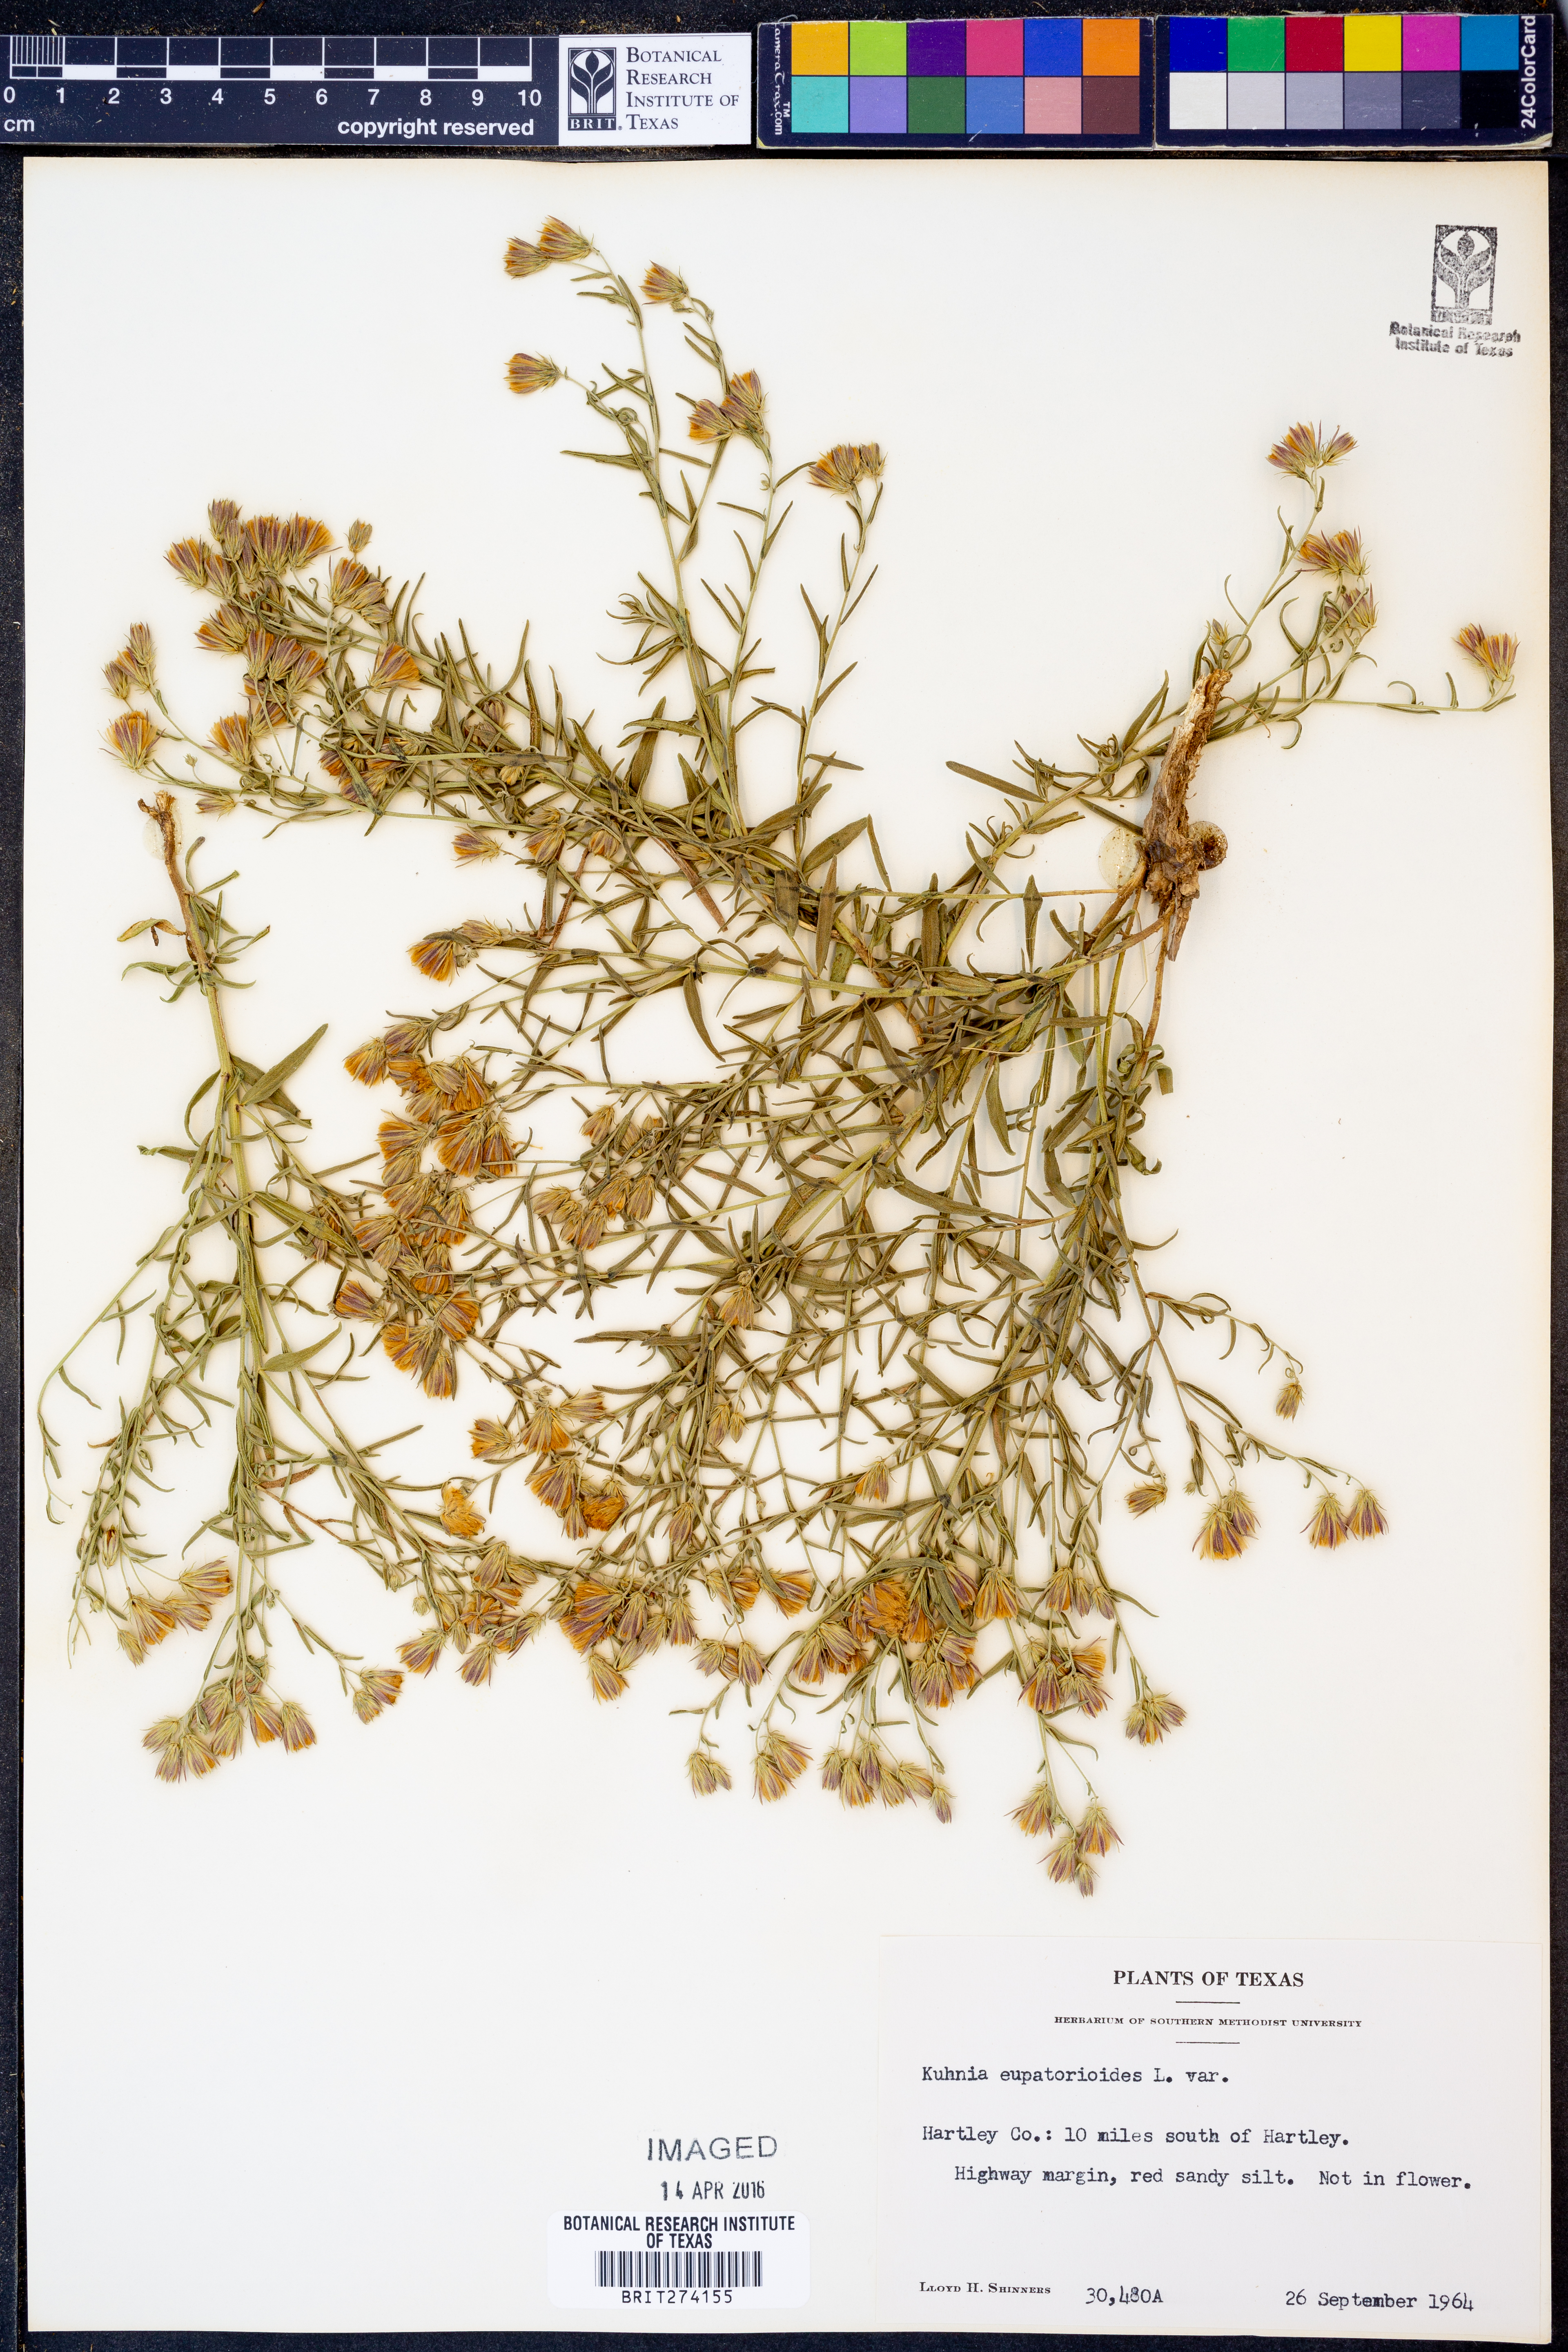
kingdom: Plantae
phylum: Tracheophyta
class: Magnoliopsida
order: Asterales
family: Asteraceae
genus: Brickellia
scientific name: Brickellia eupatorioides
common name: False boneset
